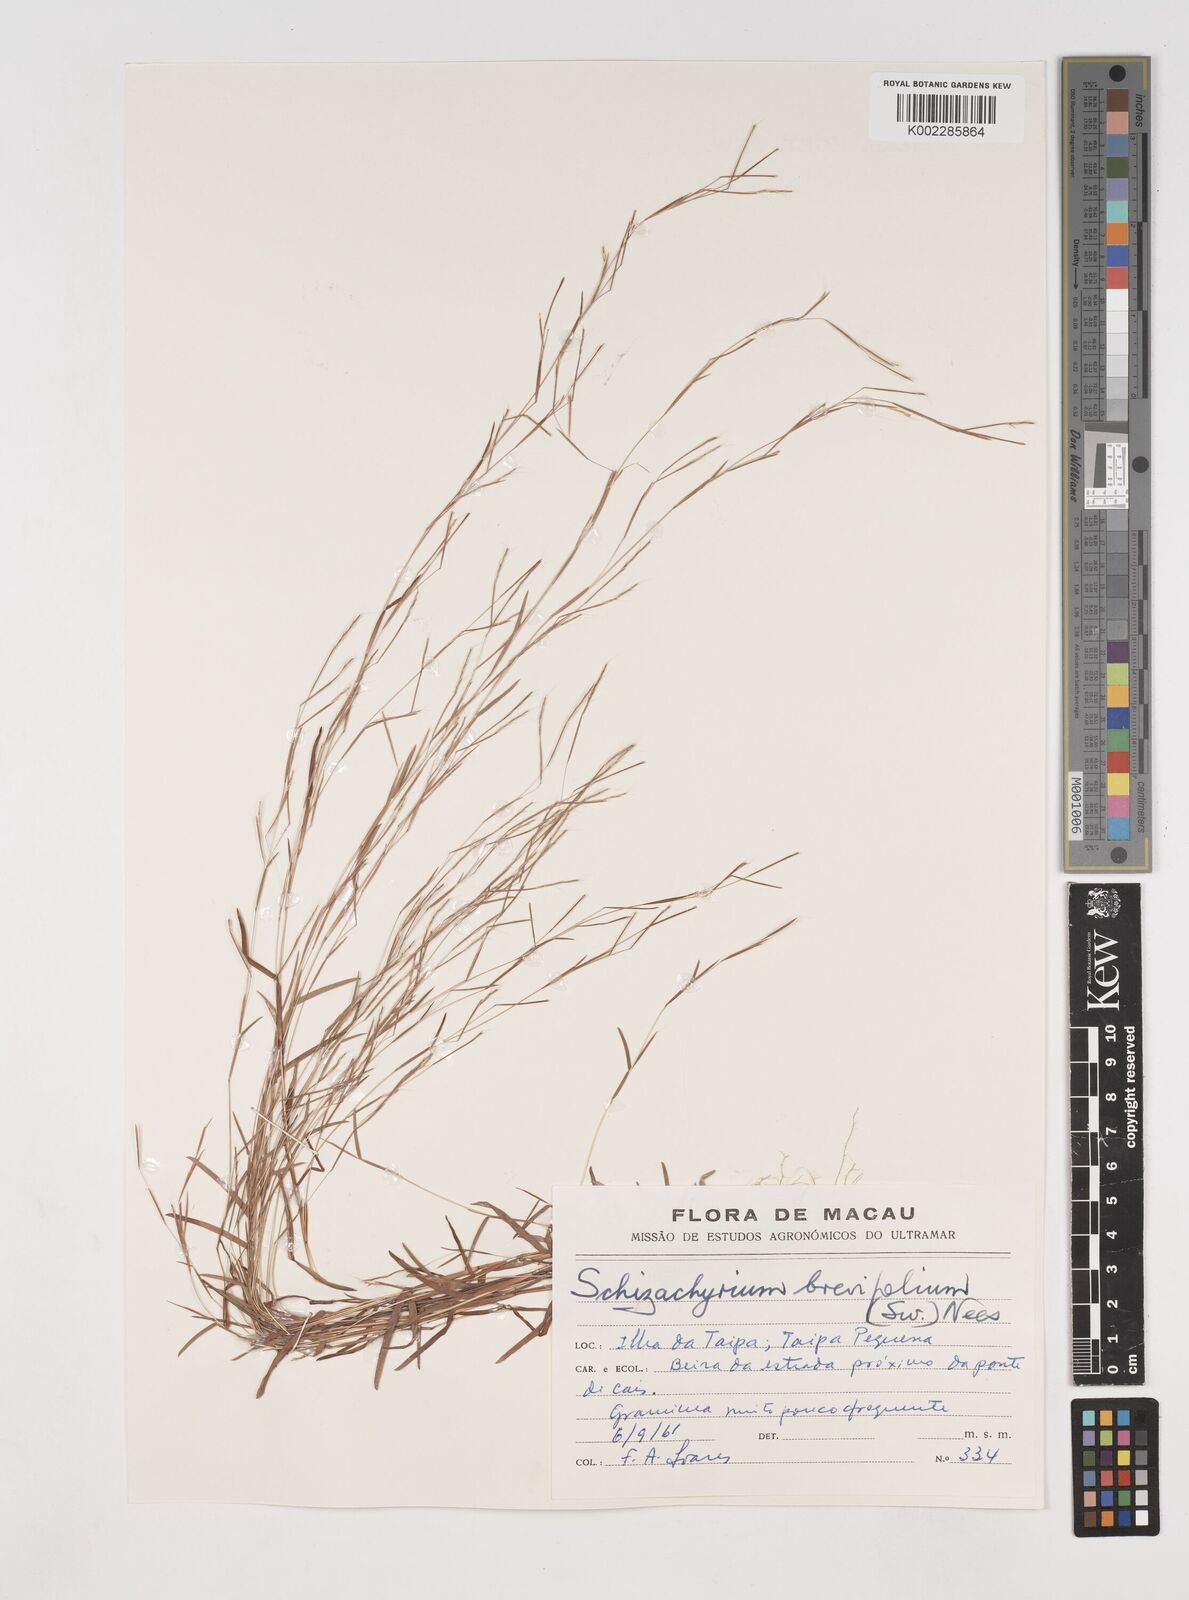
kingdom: Plantae
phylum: Tracheophyta
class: Liliopsida
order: Poales
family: Poaceae
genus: Schizachyrium
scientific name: Schizachyrium brevifolium
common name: Serillo dulce
